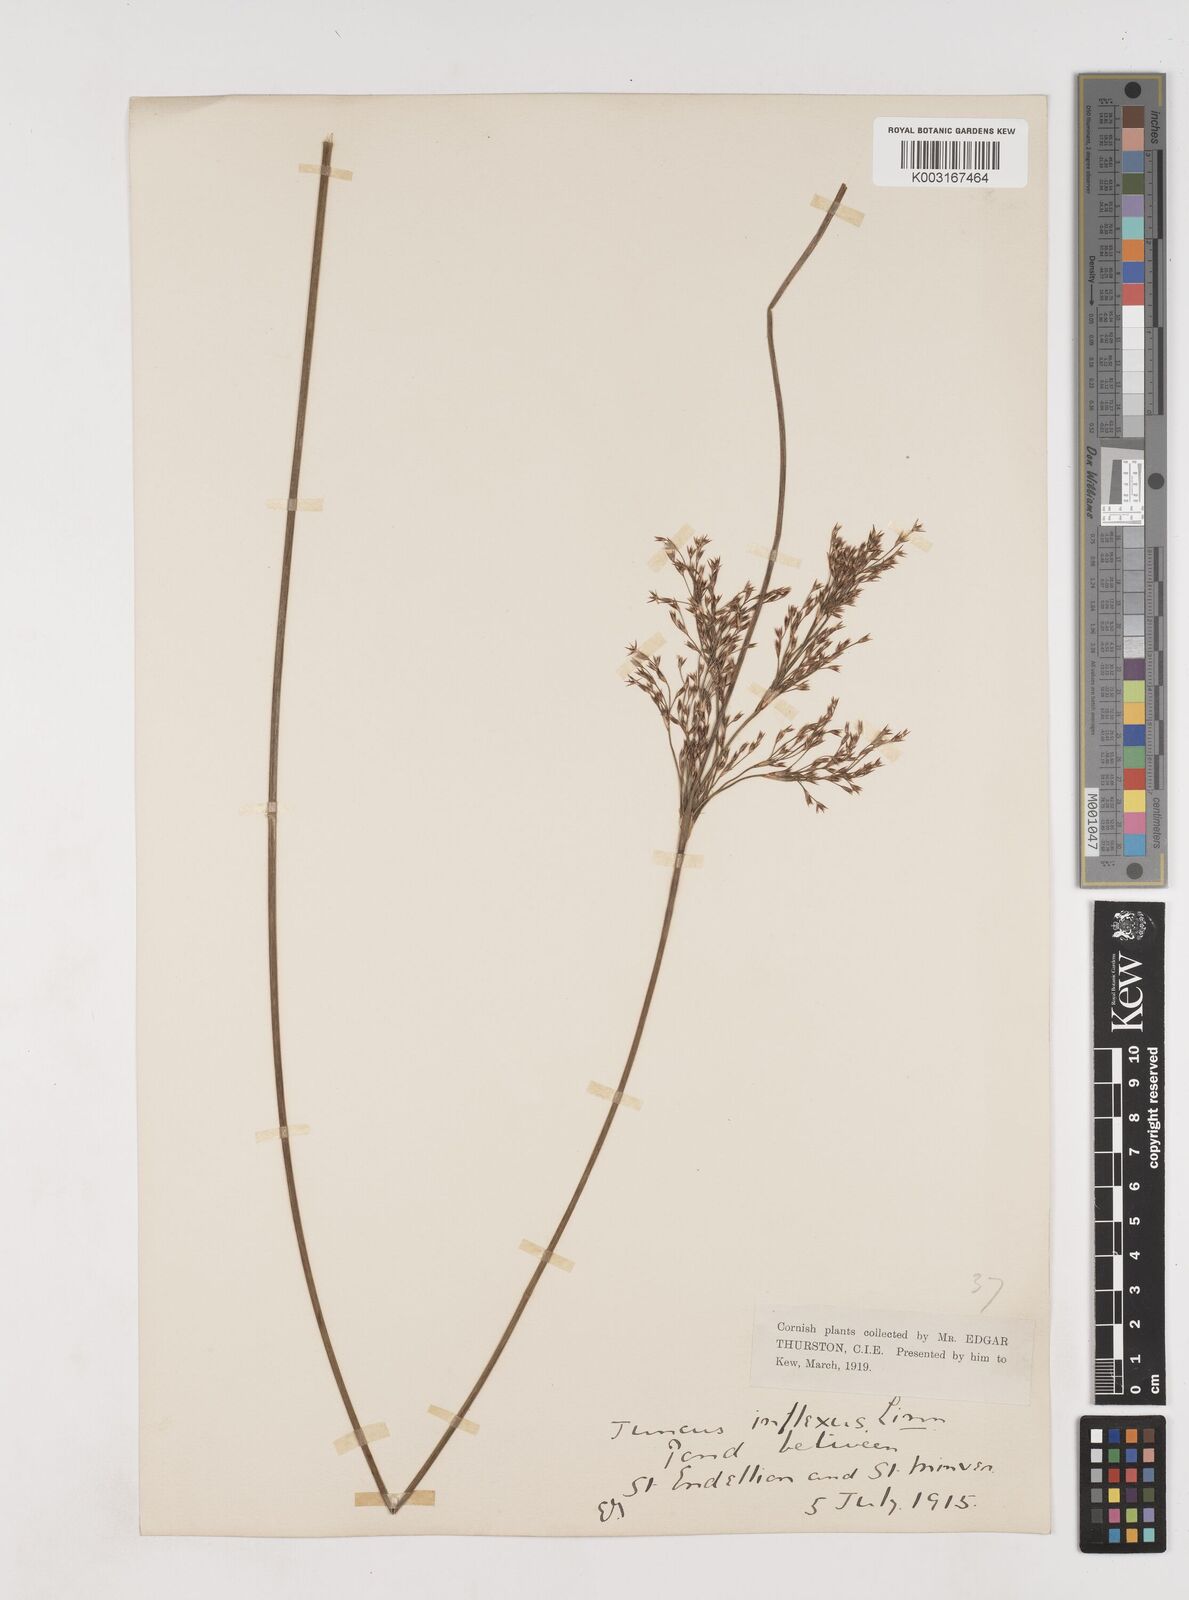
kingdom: Plantae
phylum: Tracheophyta
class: Liliopsida
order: Poales
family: Juncaceae
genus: Juncus
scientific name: Juncus inflexus
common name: Hard rush
